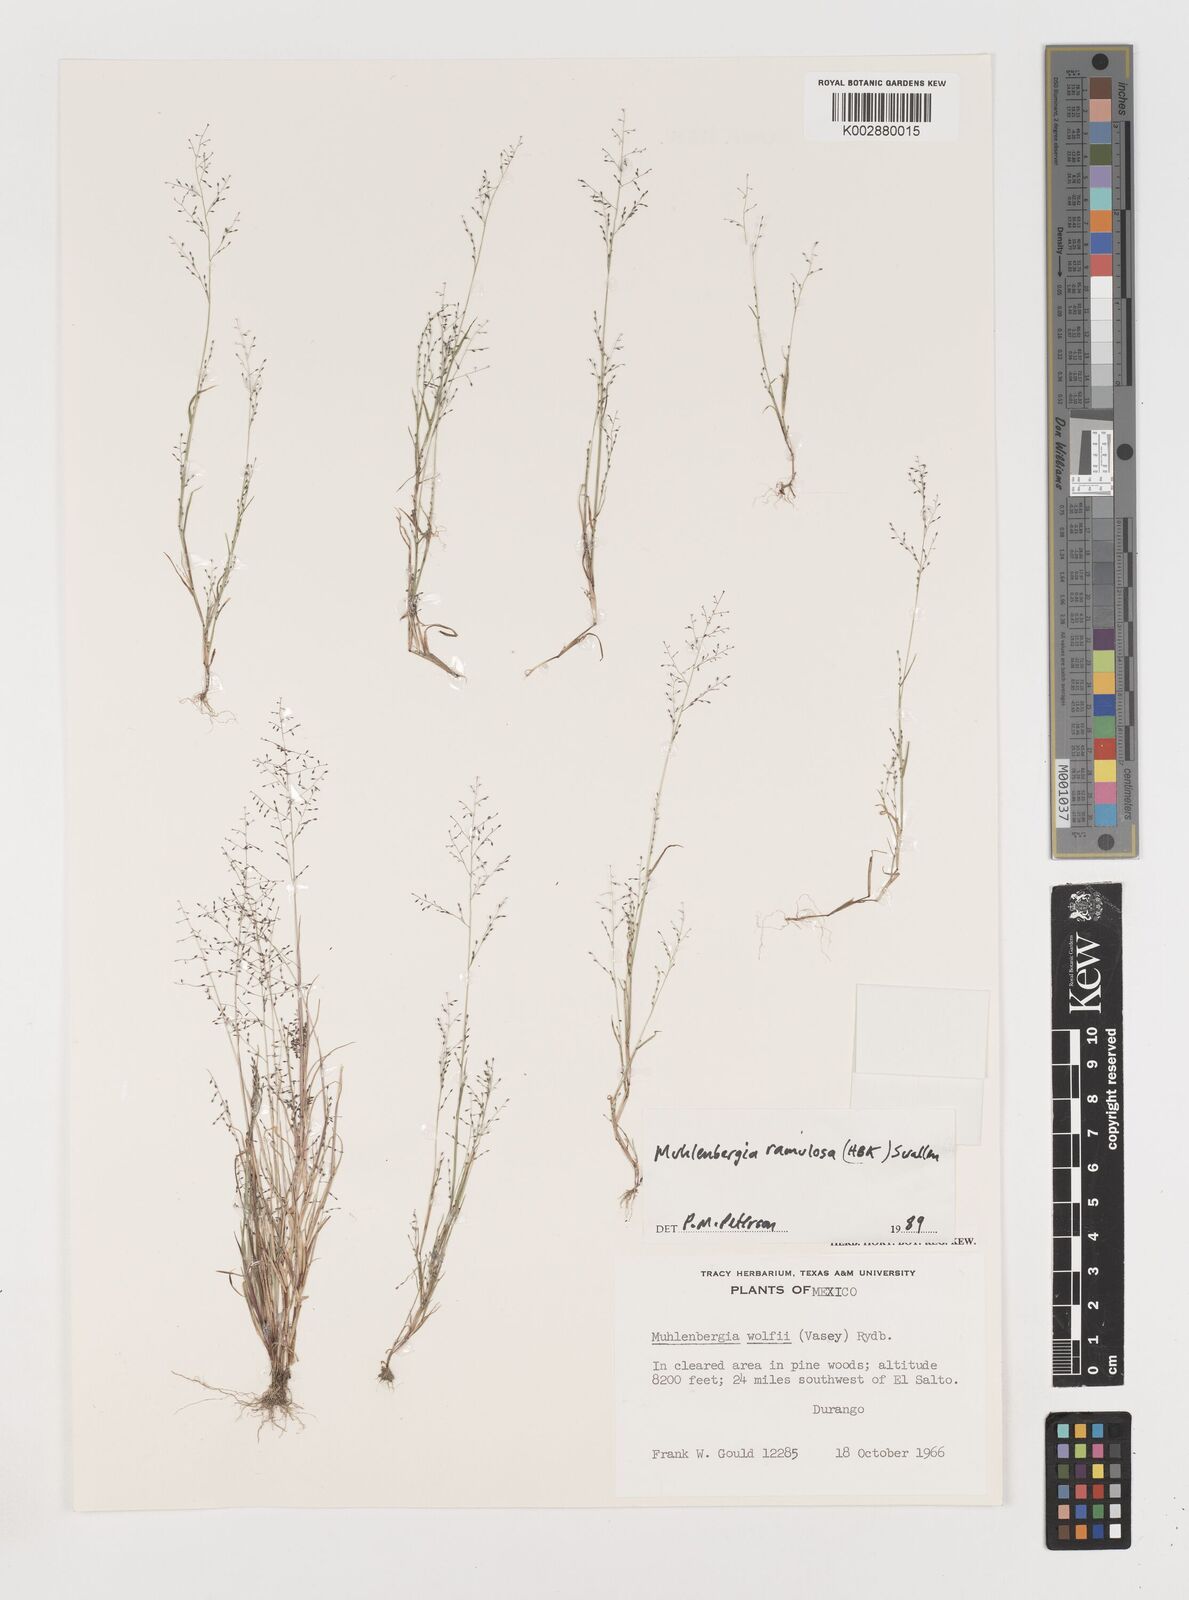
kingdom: Plantae
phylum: Tracheophyta
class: Liliopsida
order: Poales
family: Poaceae
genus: Muhlenbergia
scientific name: Muhlenbergia ramulosa
